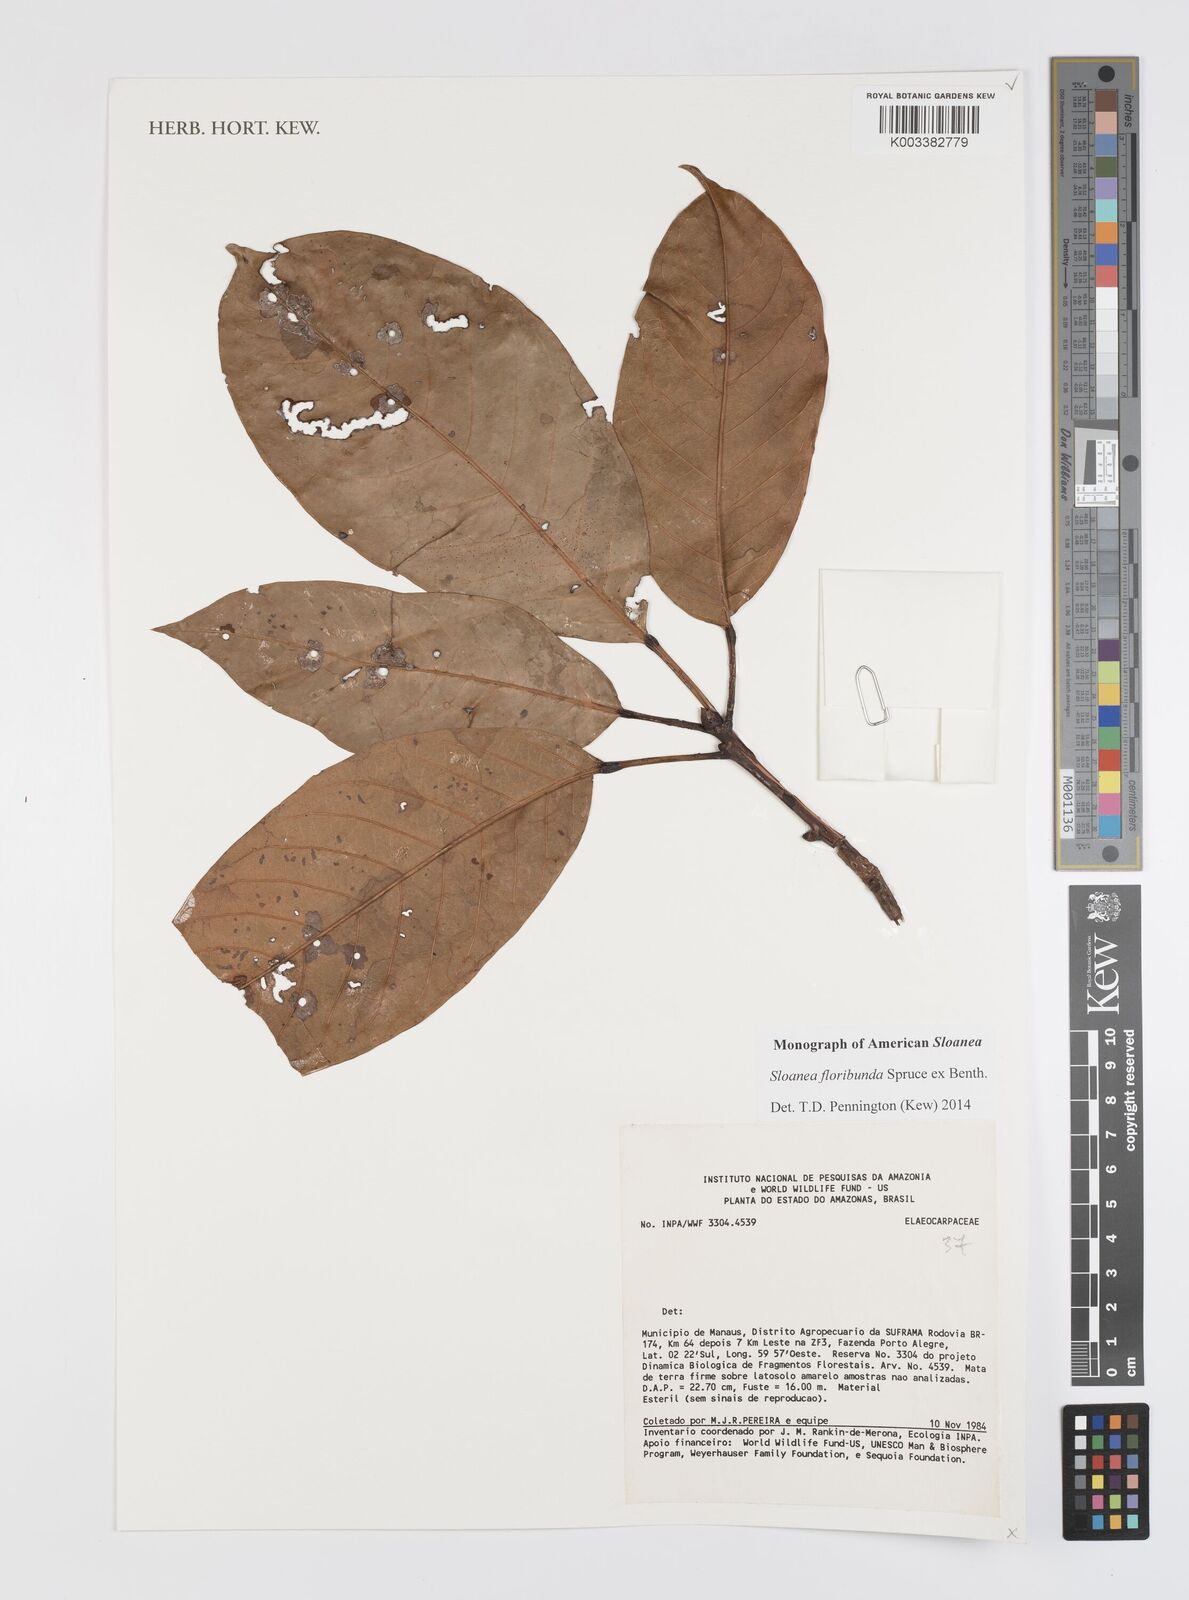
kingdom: Plantae
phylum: Tracheophyta
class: Magnoliopsida
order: Oxalidales
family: Elaeocarpaceae
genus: Sloanea
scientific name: Sloanea floribunda
